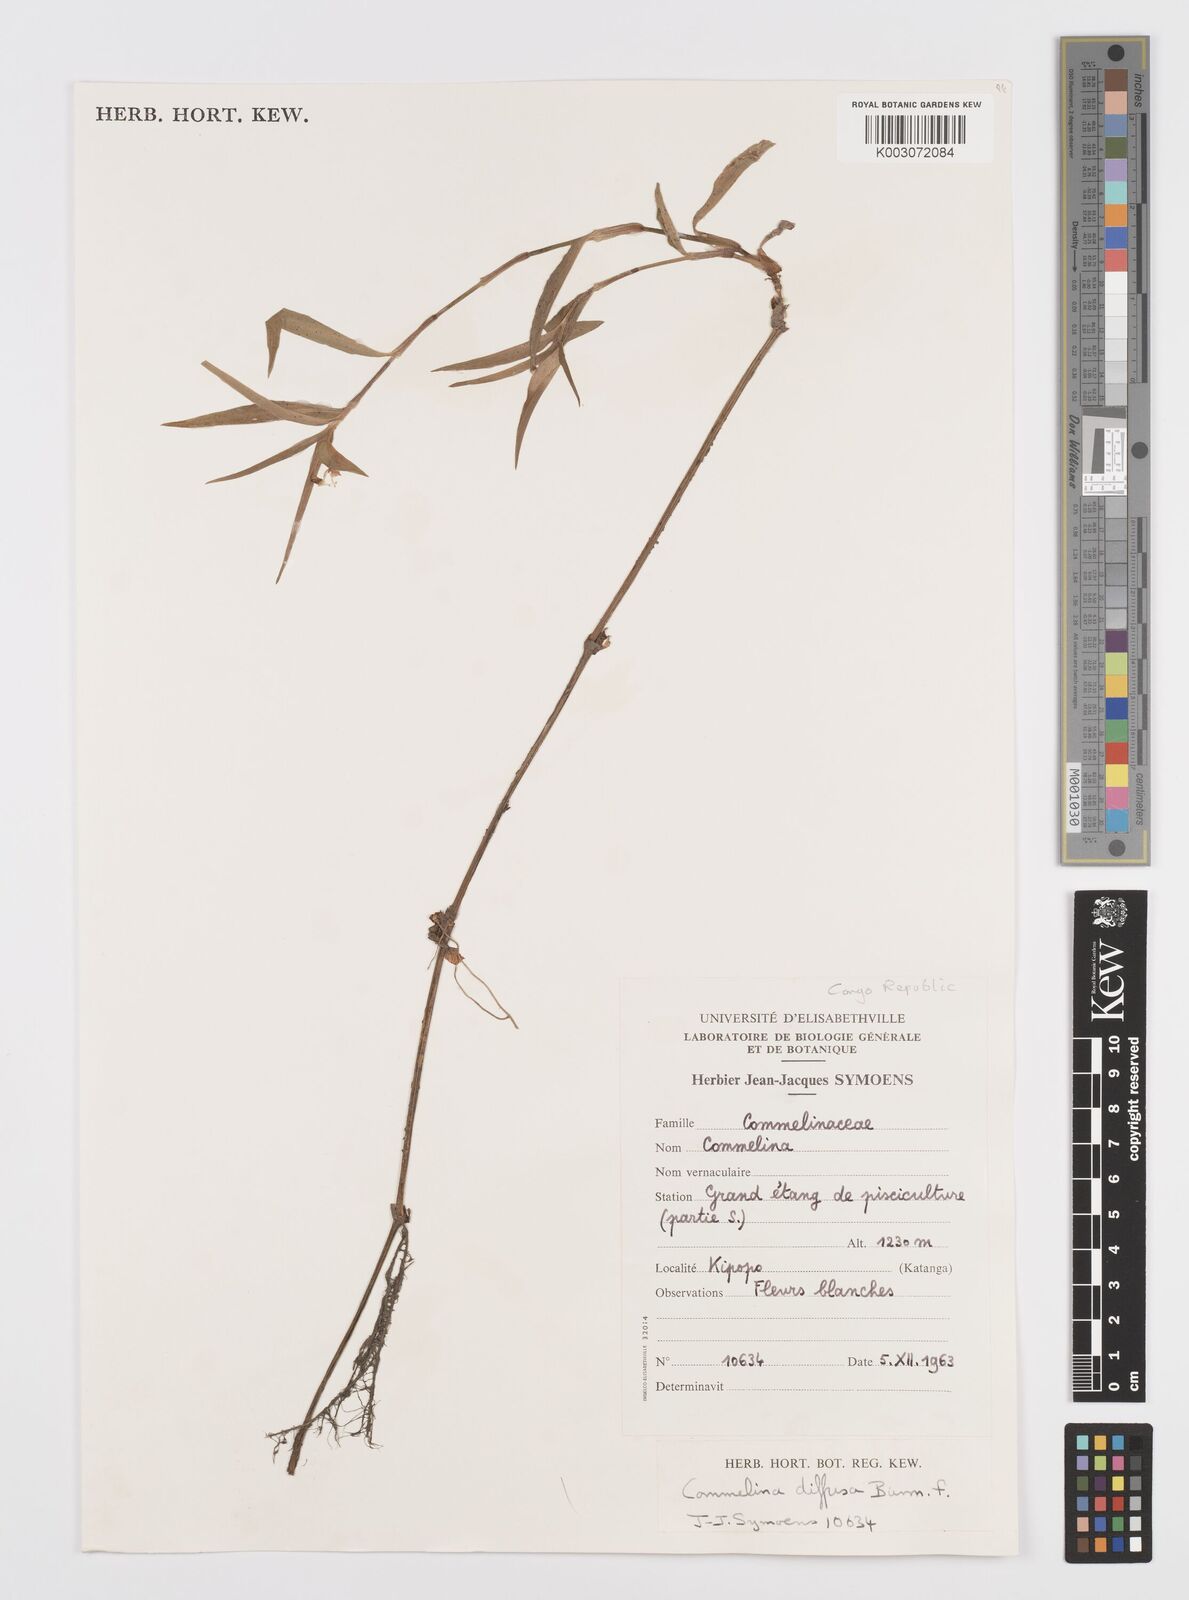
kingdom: Plantae
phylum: Tracheophyta
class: Liliopsida
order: Commelinales
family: Commelinaceae
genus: Commelina
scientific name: Commelina diffusa
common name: Climbing dayflower
